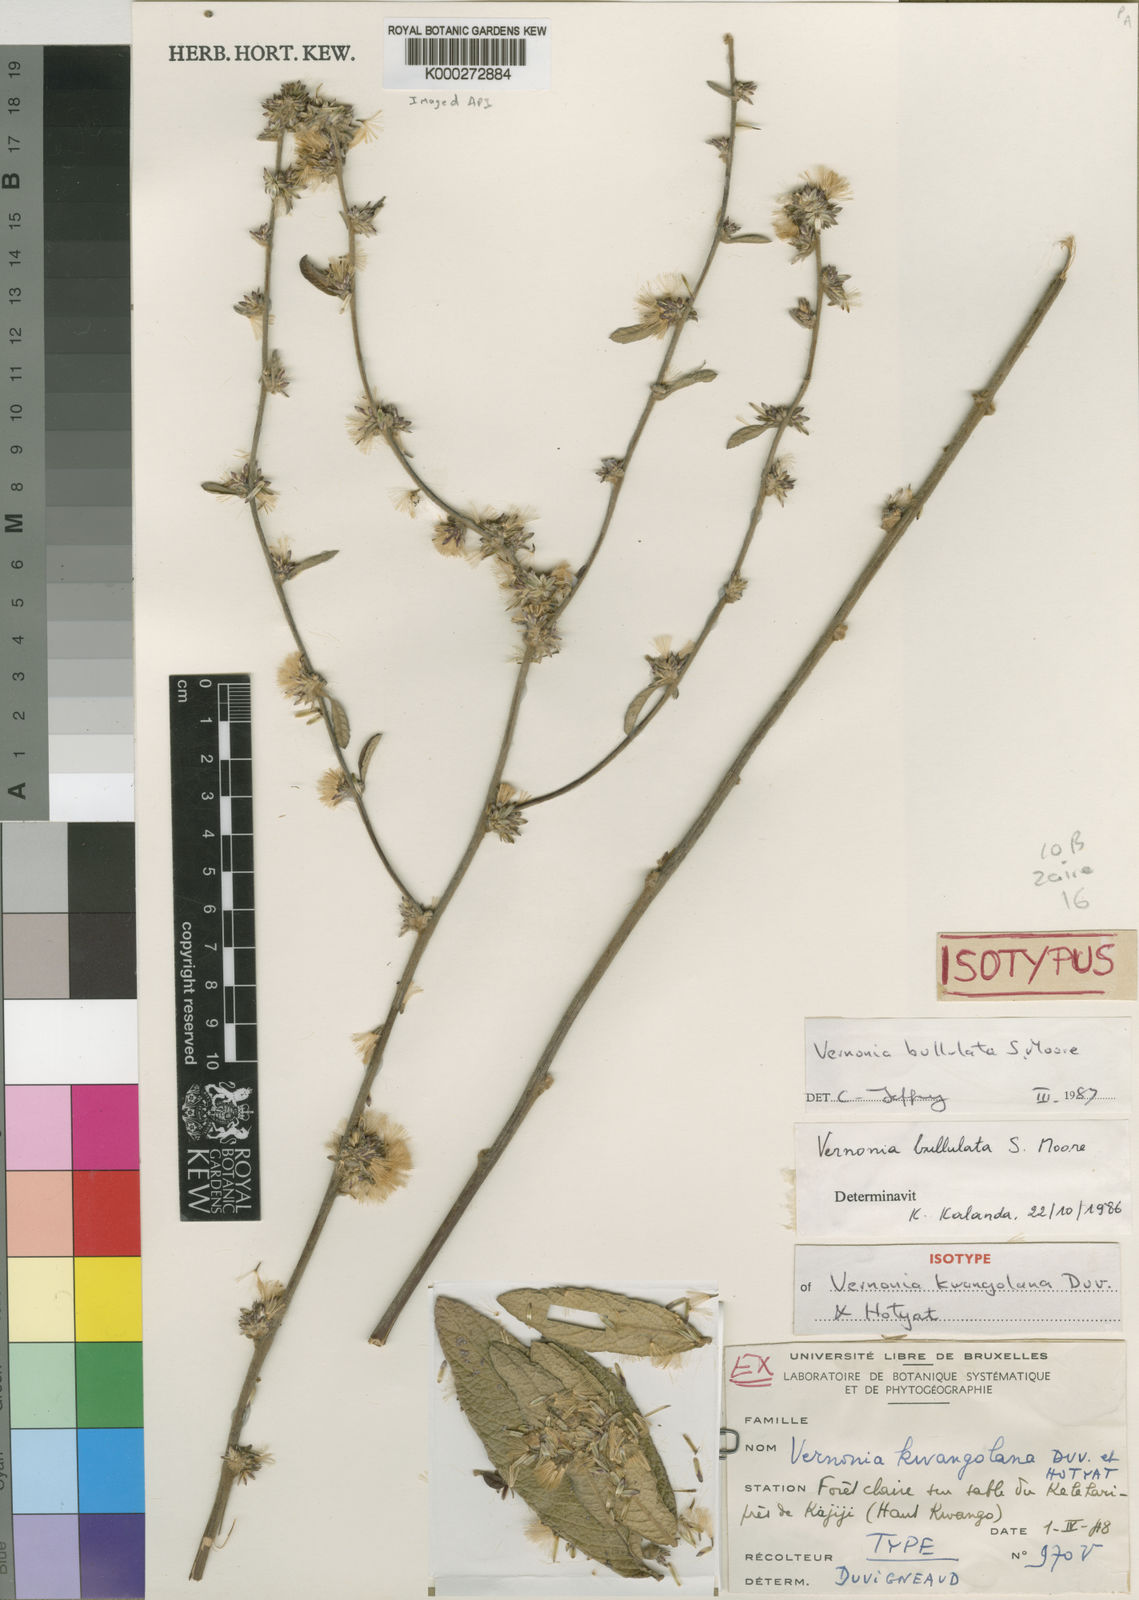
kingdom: Plantae
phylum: Tracheophyta
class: Magnoliopsida
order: Asterales
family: Asteraceae
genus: Cabobanthus
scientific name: Cabobanthus bullulatus
